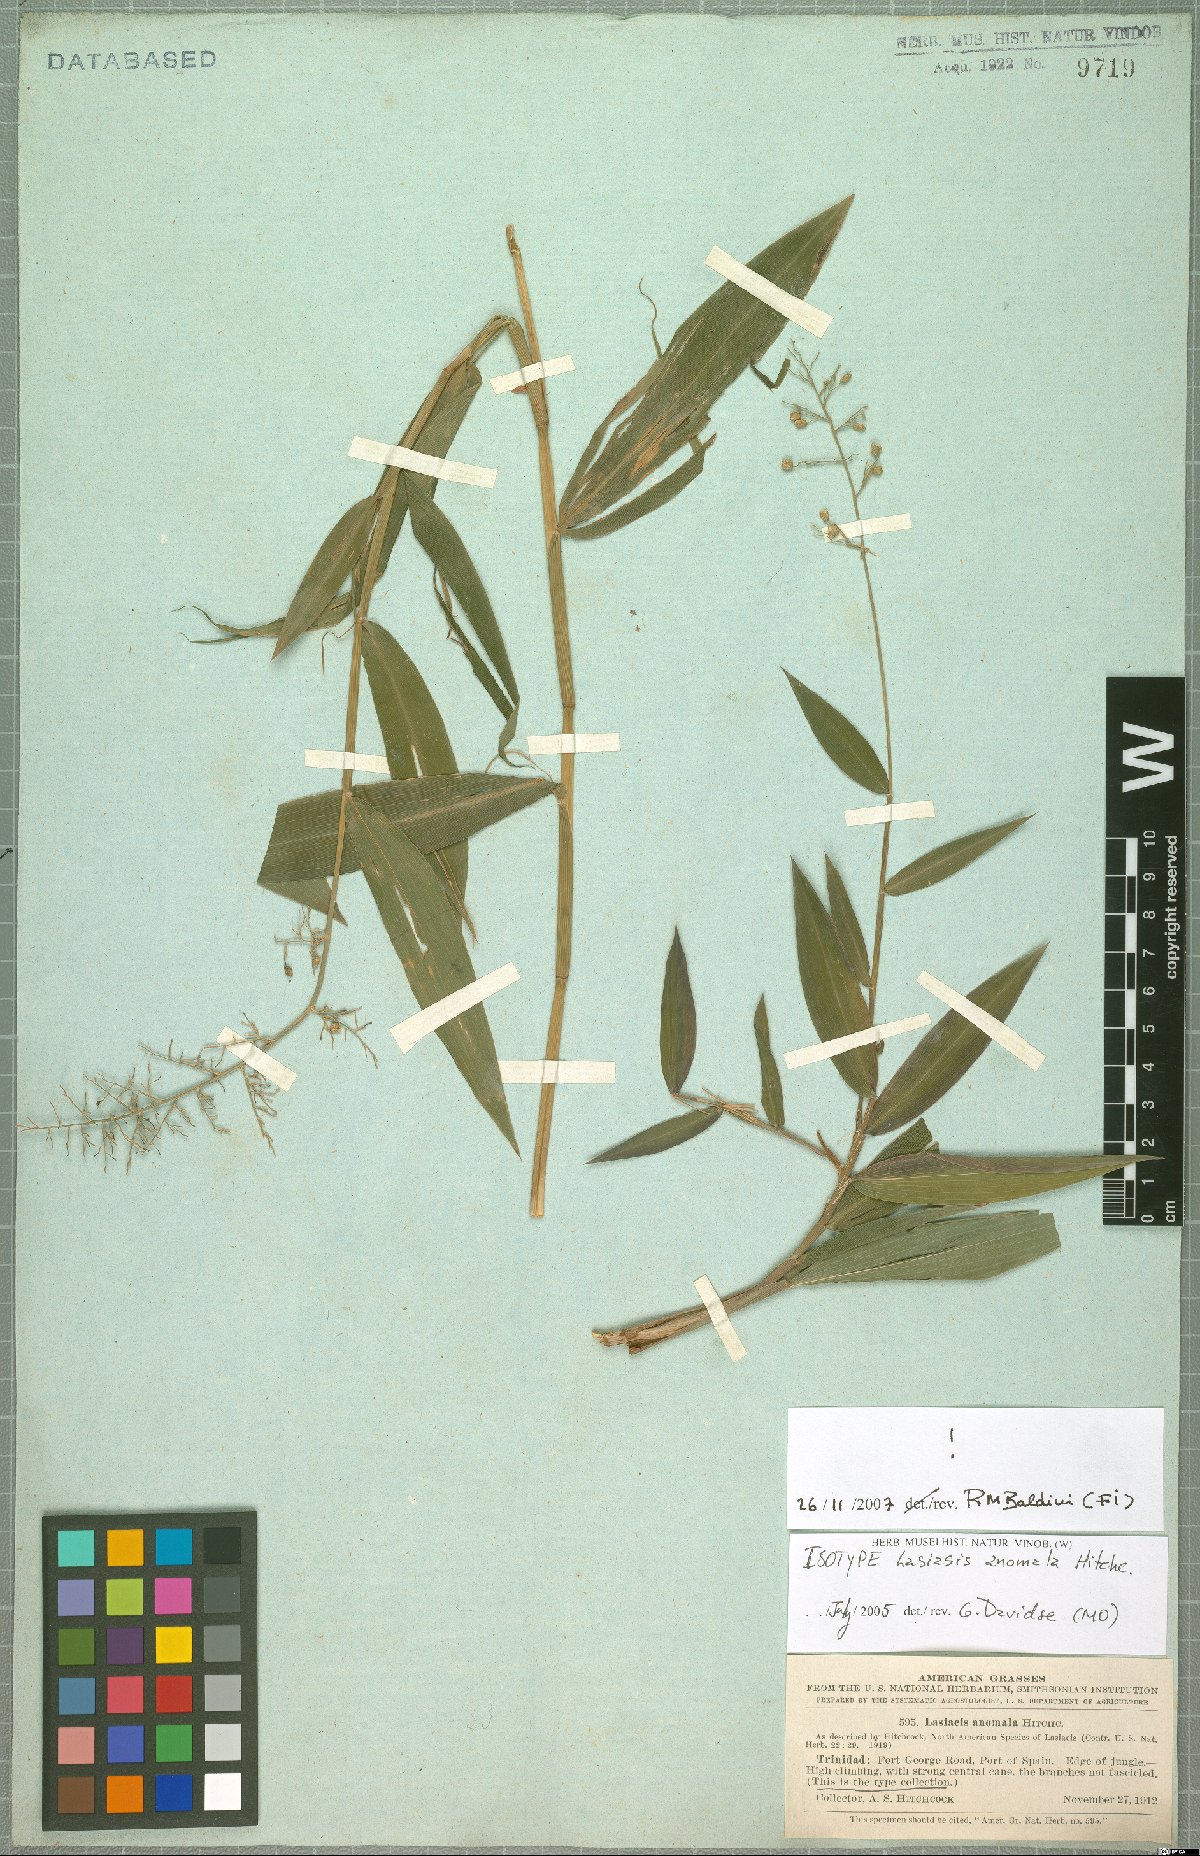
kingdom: Plantae
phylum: Tracheophyta
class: Liliopsida
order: Poales
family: Poaceae
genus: Lasiacis
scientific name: Lasiacis anomala
